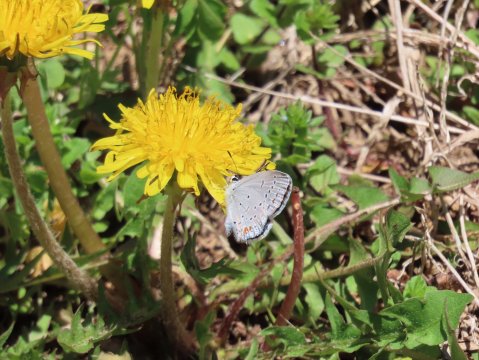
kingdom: Animalia
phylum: Arthropoda
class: Insecta
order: Lepidoptera
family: Lycaenidae
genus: Elkalyce
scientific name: Elkalyce comyntas
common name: Eastern Tailed-Blue
